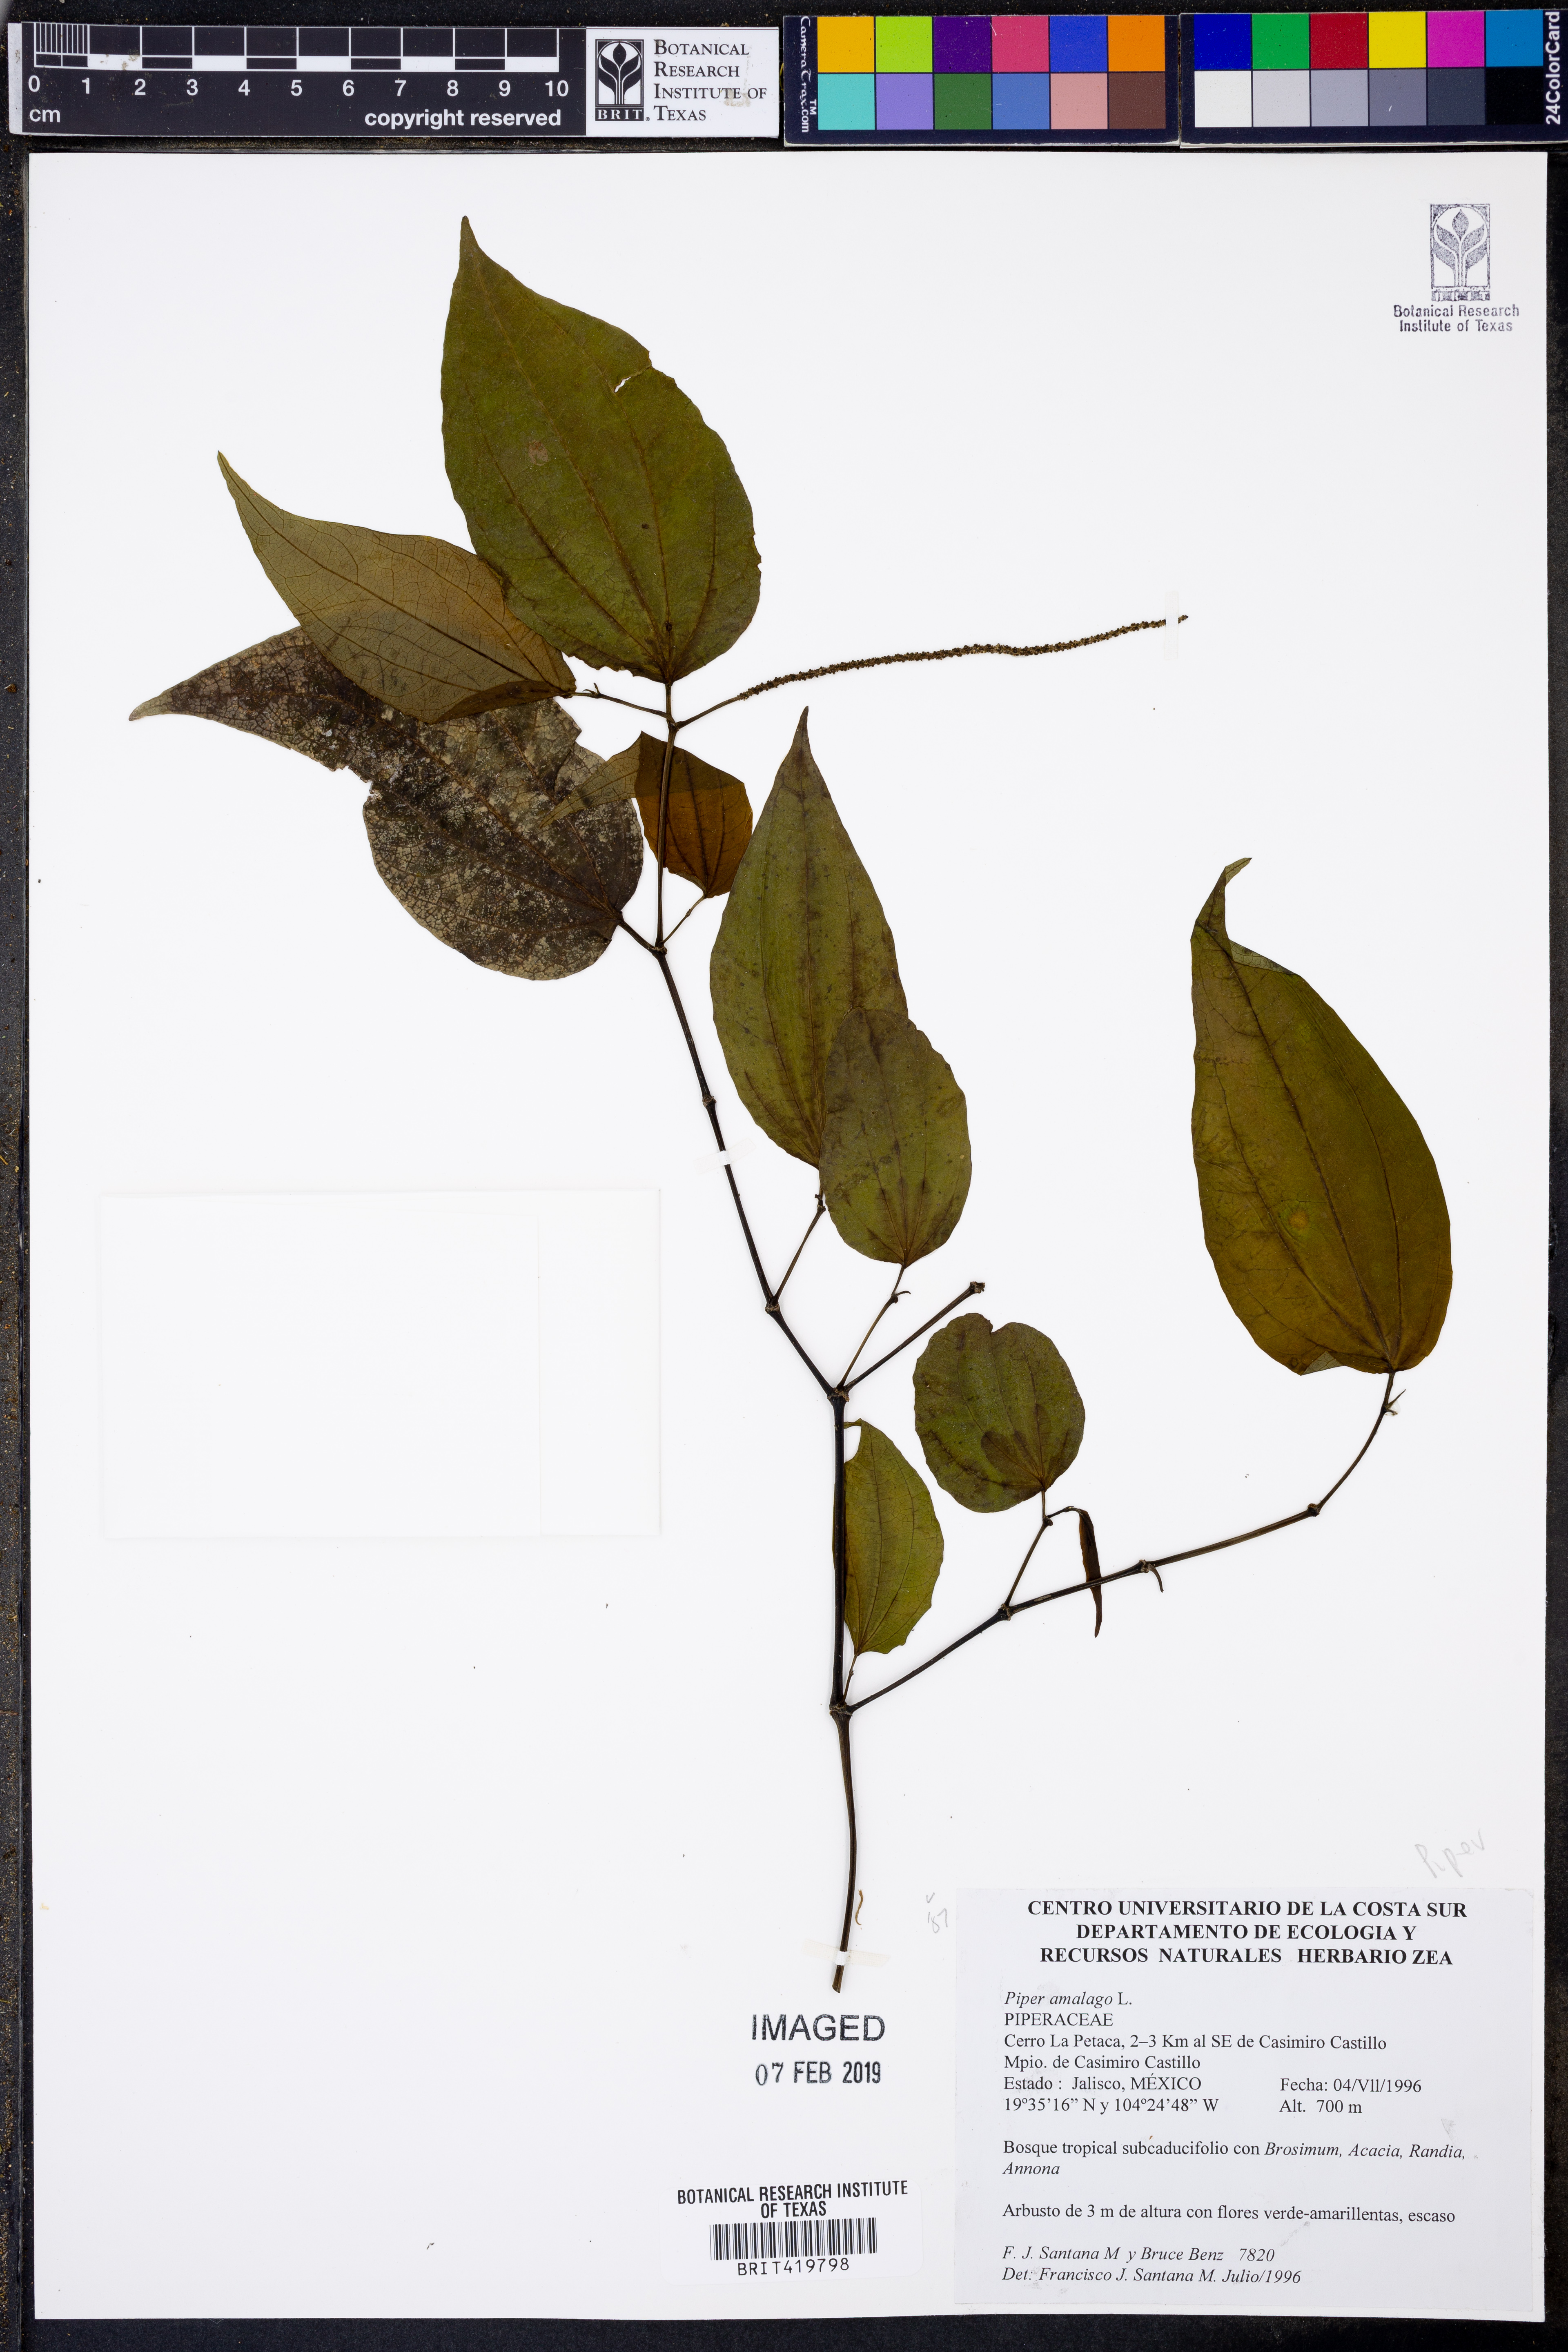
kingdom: Plantae
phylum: Tracheophyta
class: Magnoliopsida
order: Piperales
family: Piperaceae
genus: Piper
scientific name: Piper amalago
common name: Pepper-elder
